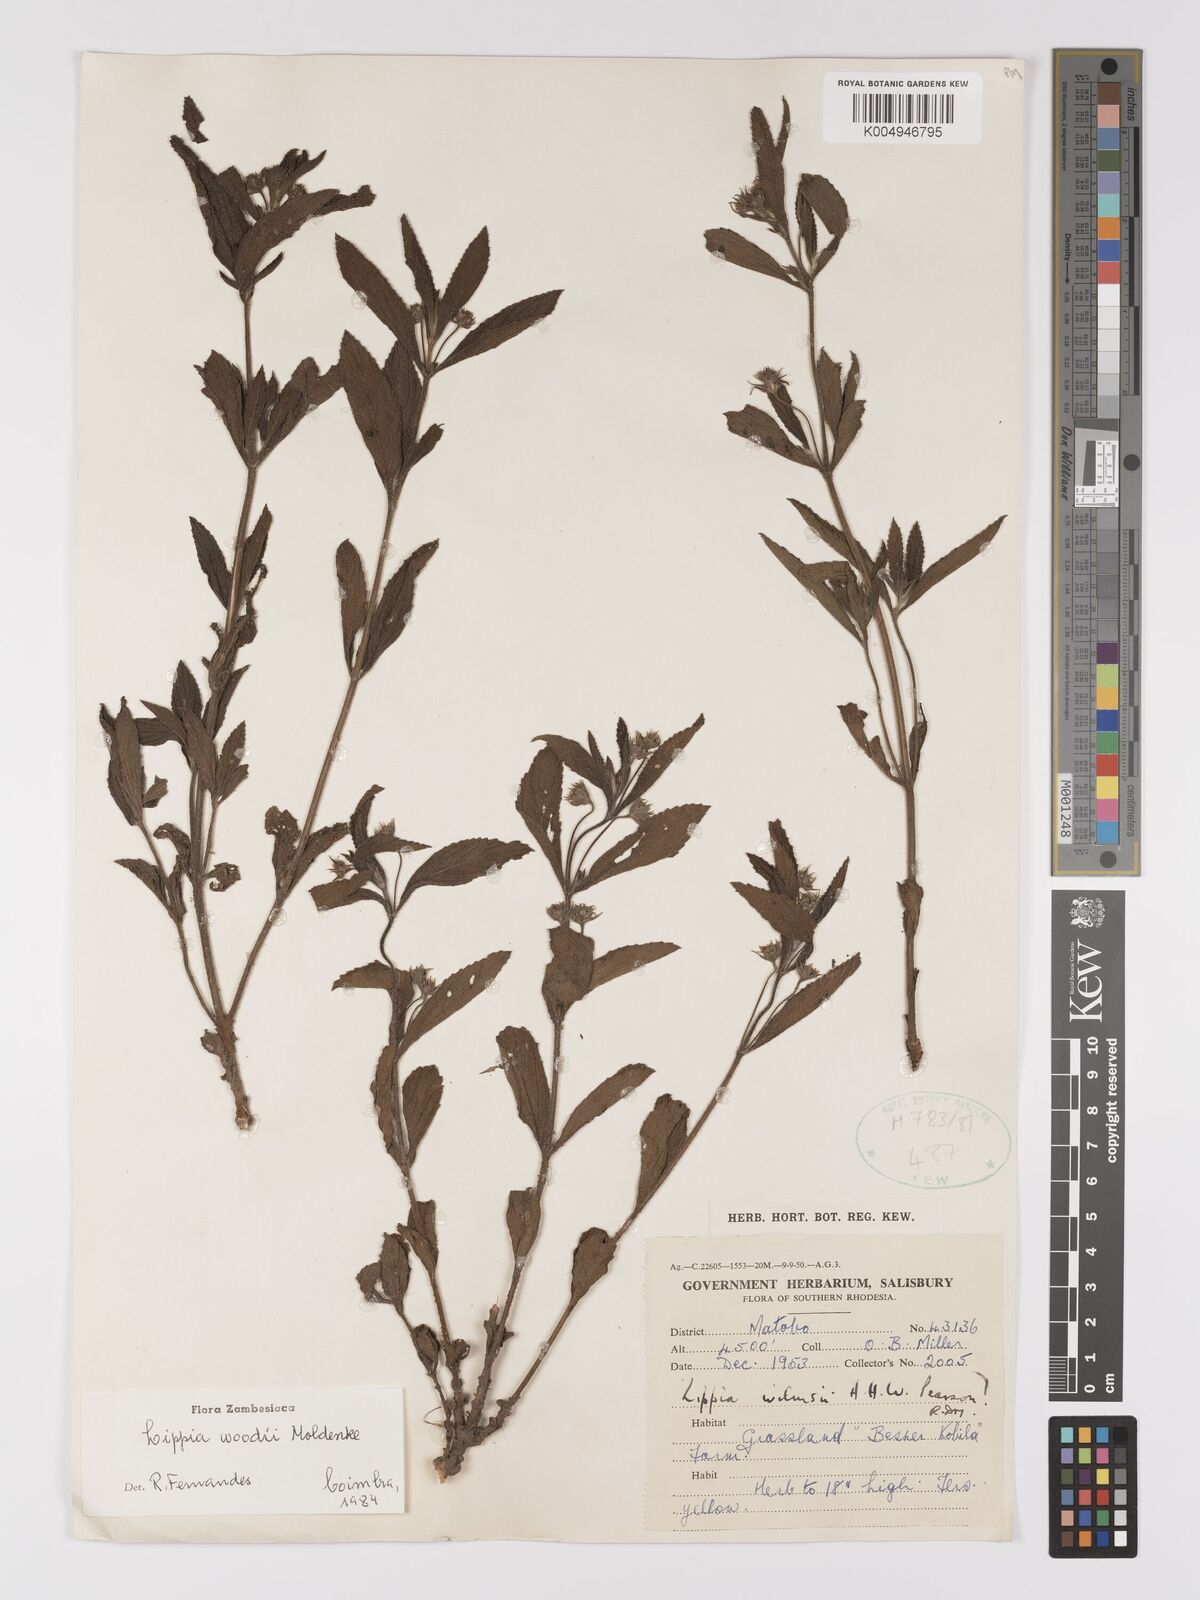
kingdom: Plantae
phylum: Tracheophyta
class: Magnoliopsida
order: Lamiales
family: Verbenaceae
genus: Lippia
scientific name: Lippia woodii
